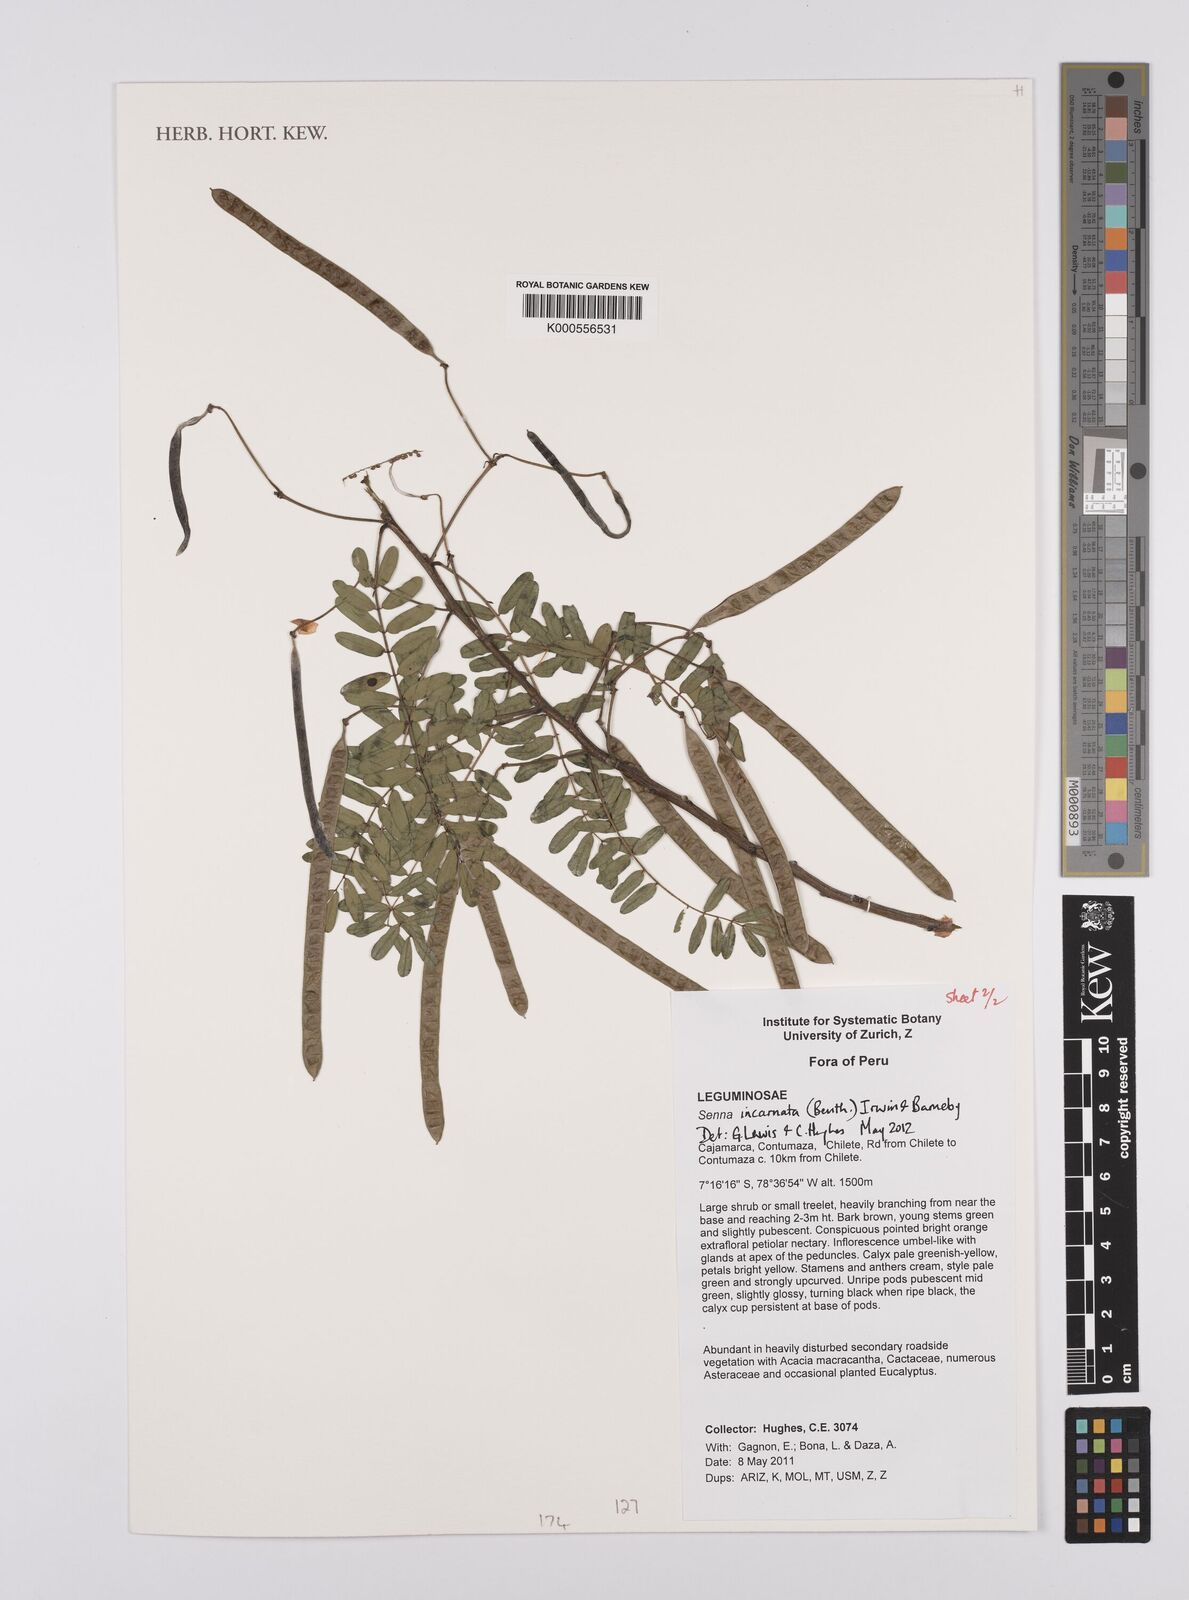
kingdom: Plantae
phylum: Tracheophyta
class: Magnoliopsida
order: Fabales
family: Fabaceae
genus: Senna
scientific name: Senna incarnata
